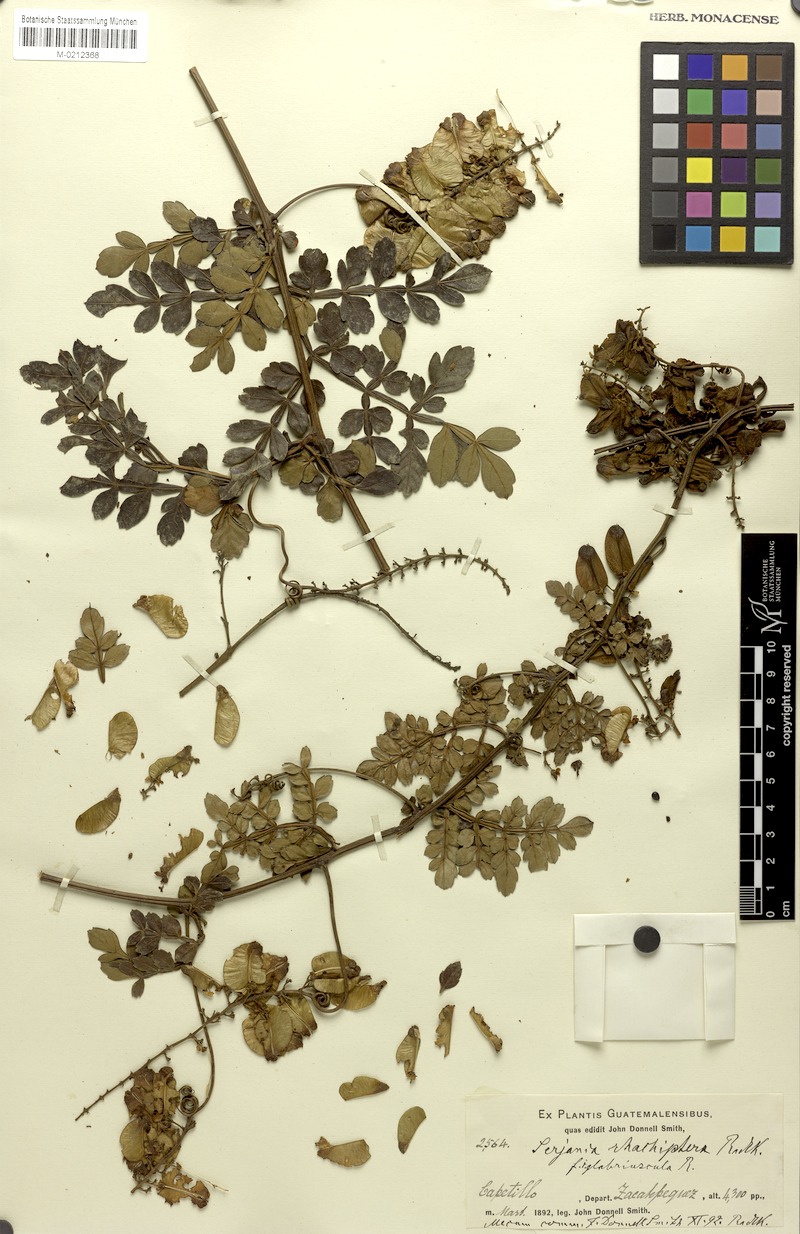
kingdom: Plantae
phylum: Tracheophyta
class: Magnoliopsida
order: Sapindales
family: Sapindaceae
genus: Serjania
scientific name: Serjania rhachiptera
